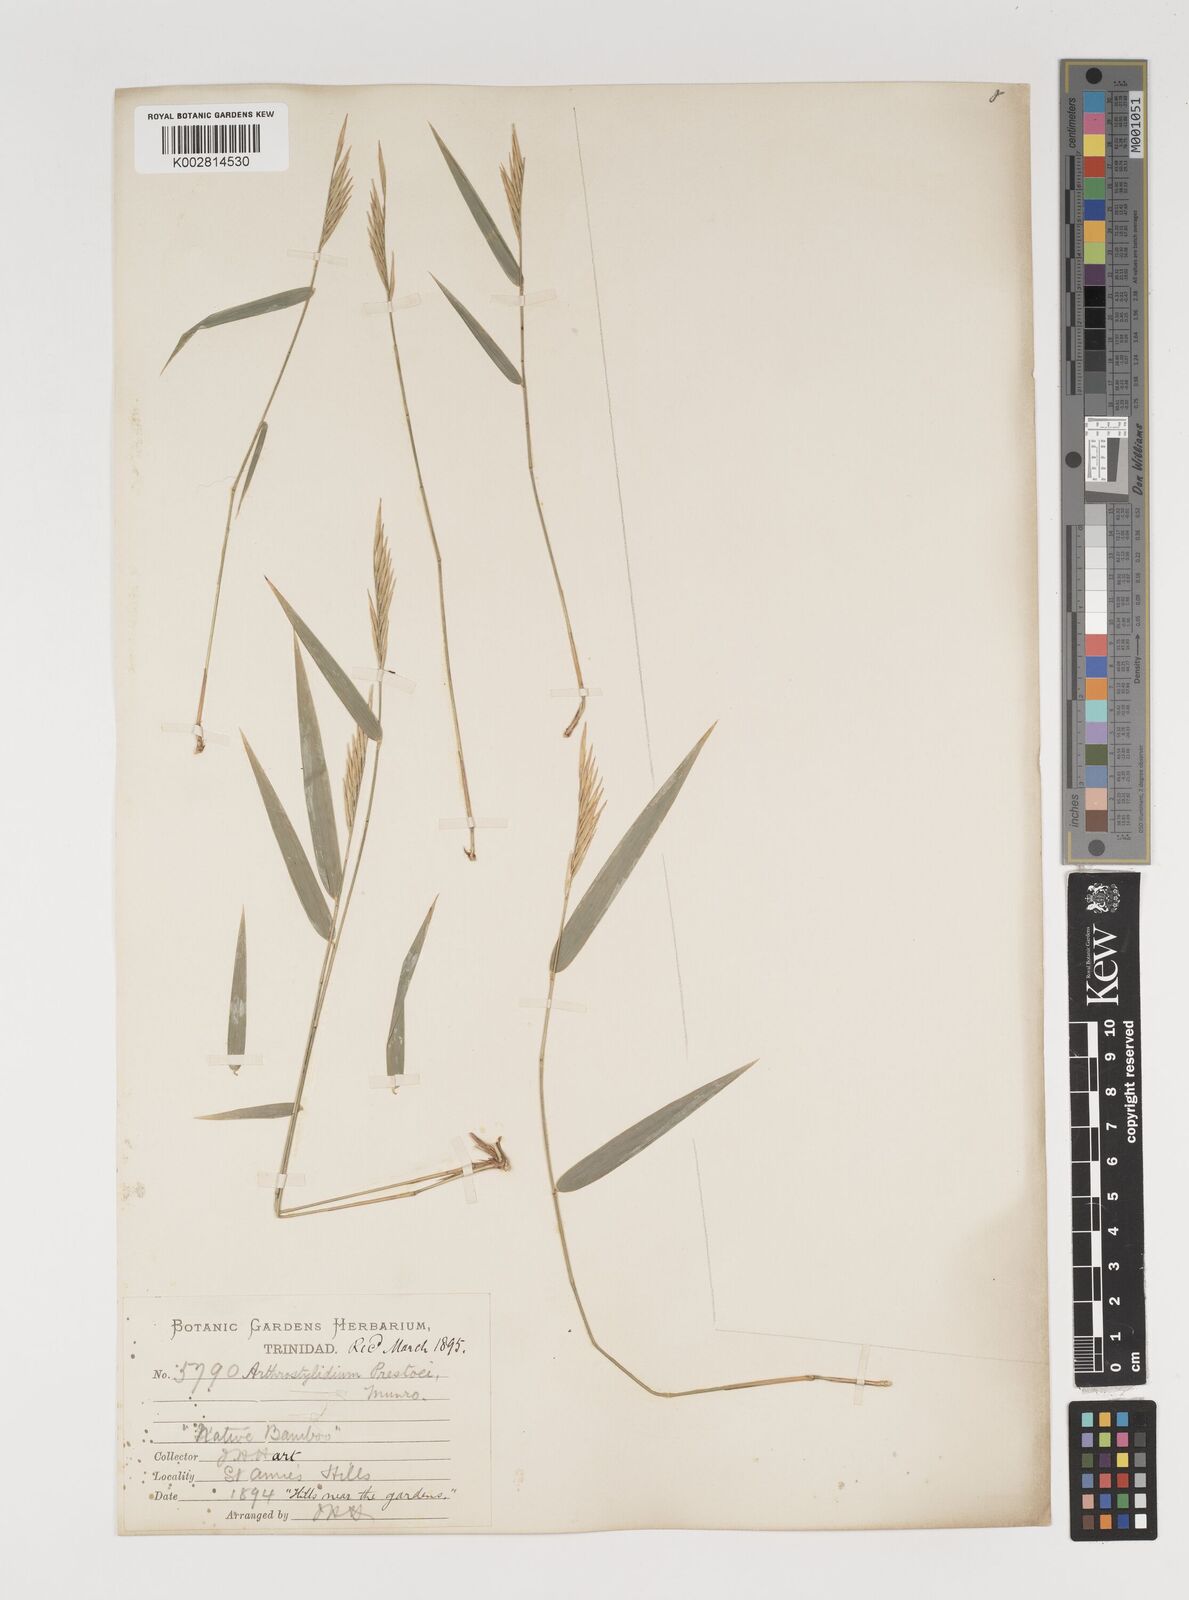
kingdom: Plantae
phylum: Tracheophyta
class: Liliopsida
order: Poales
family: Poaceae
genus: Rhipidocladum
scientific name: Rhipidocladum prestoei
